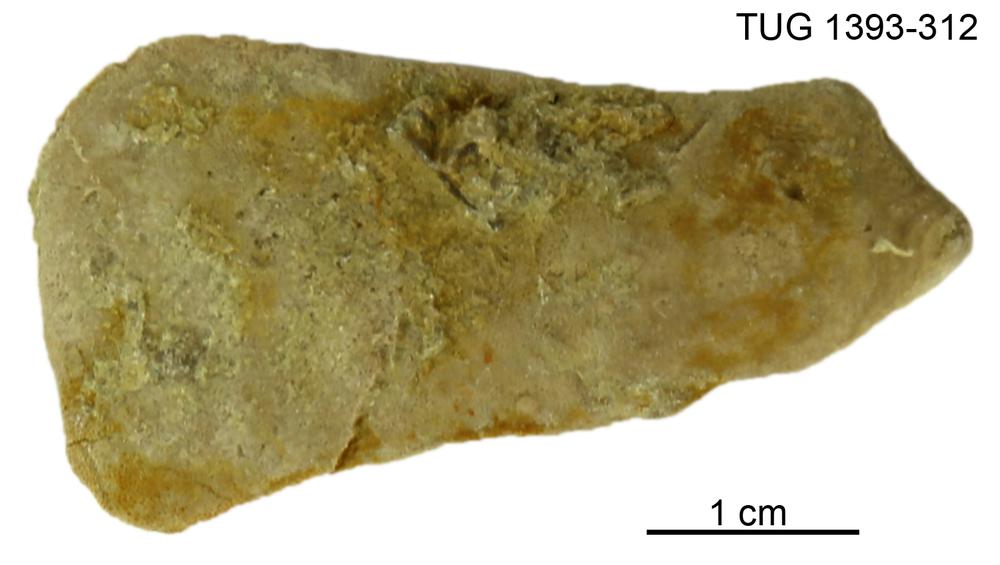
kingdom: Animalia
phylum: Bryozoa
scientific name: Bryozoa
